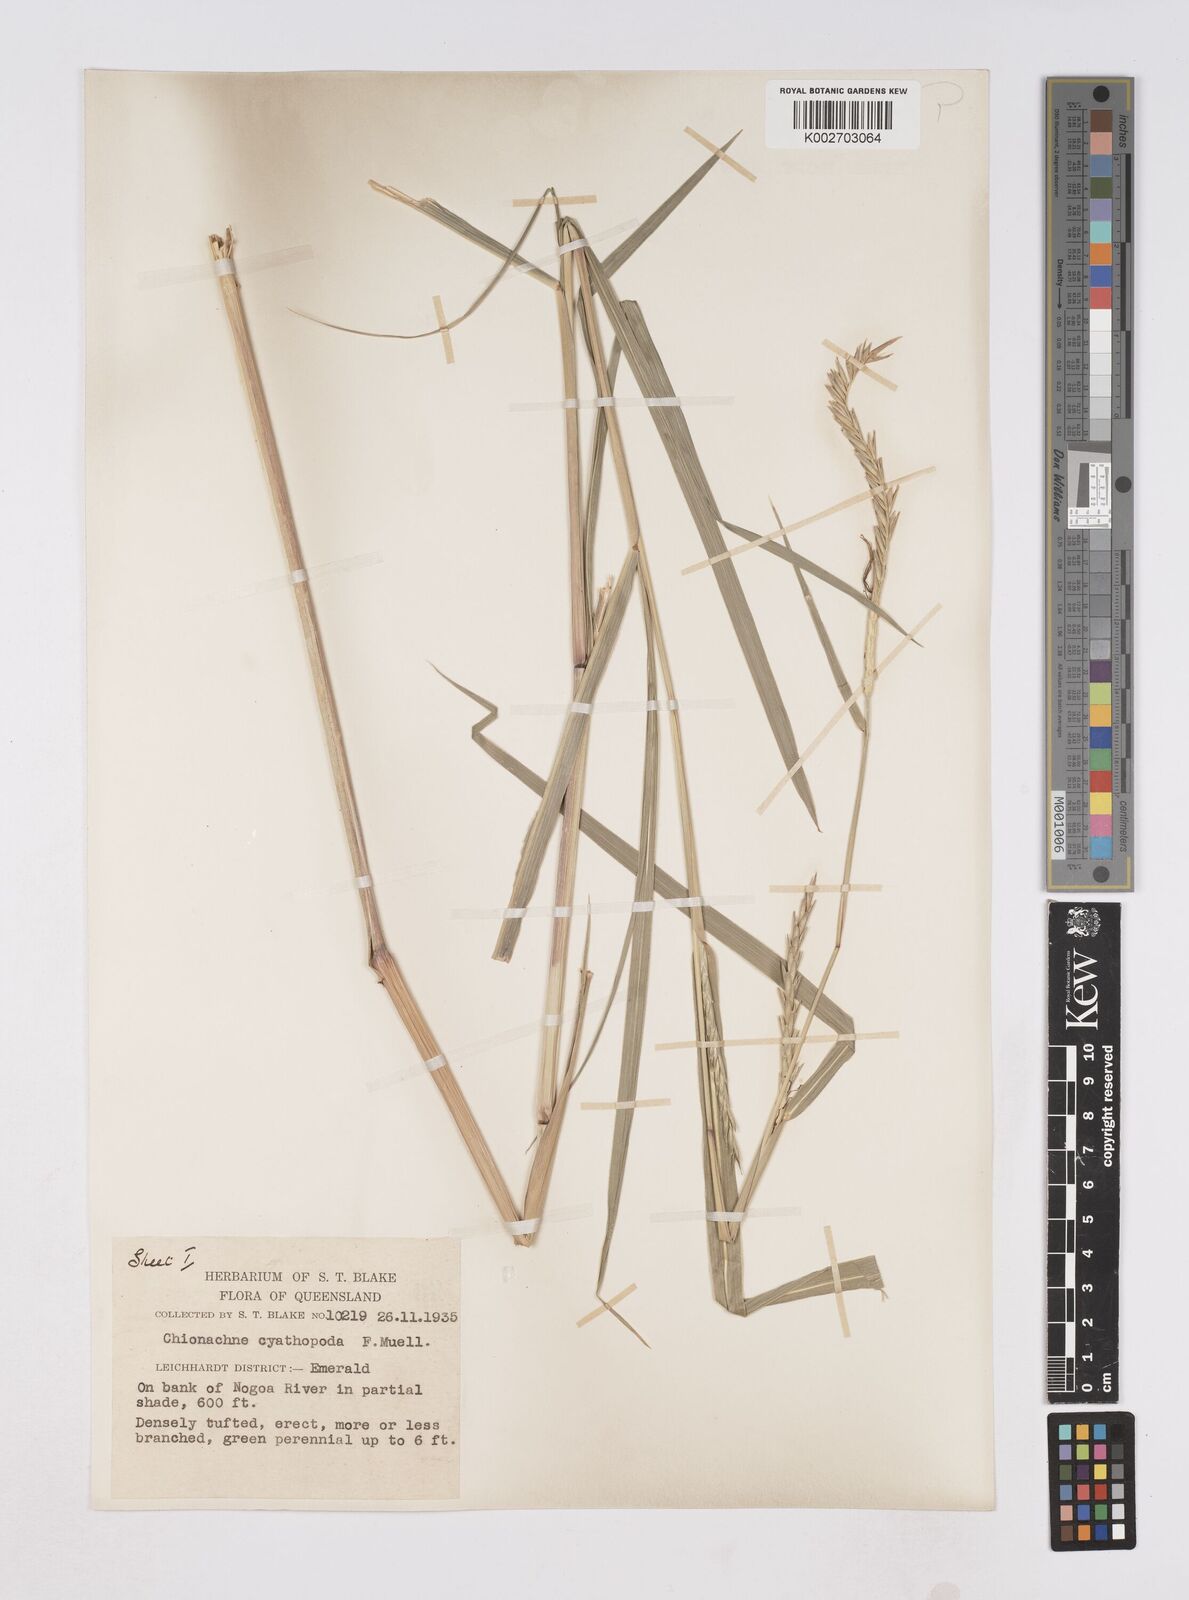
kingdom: Plantae
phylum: Tracheophyta
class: Liliopsida
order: Poales
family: Poaceae
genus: Polytoca
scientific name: Polytoca cyathopoda
